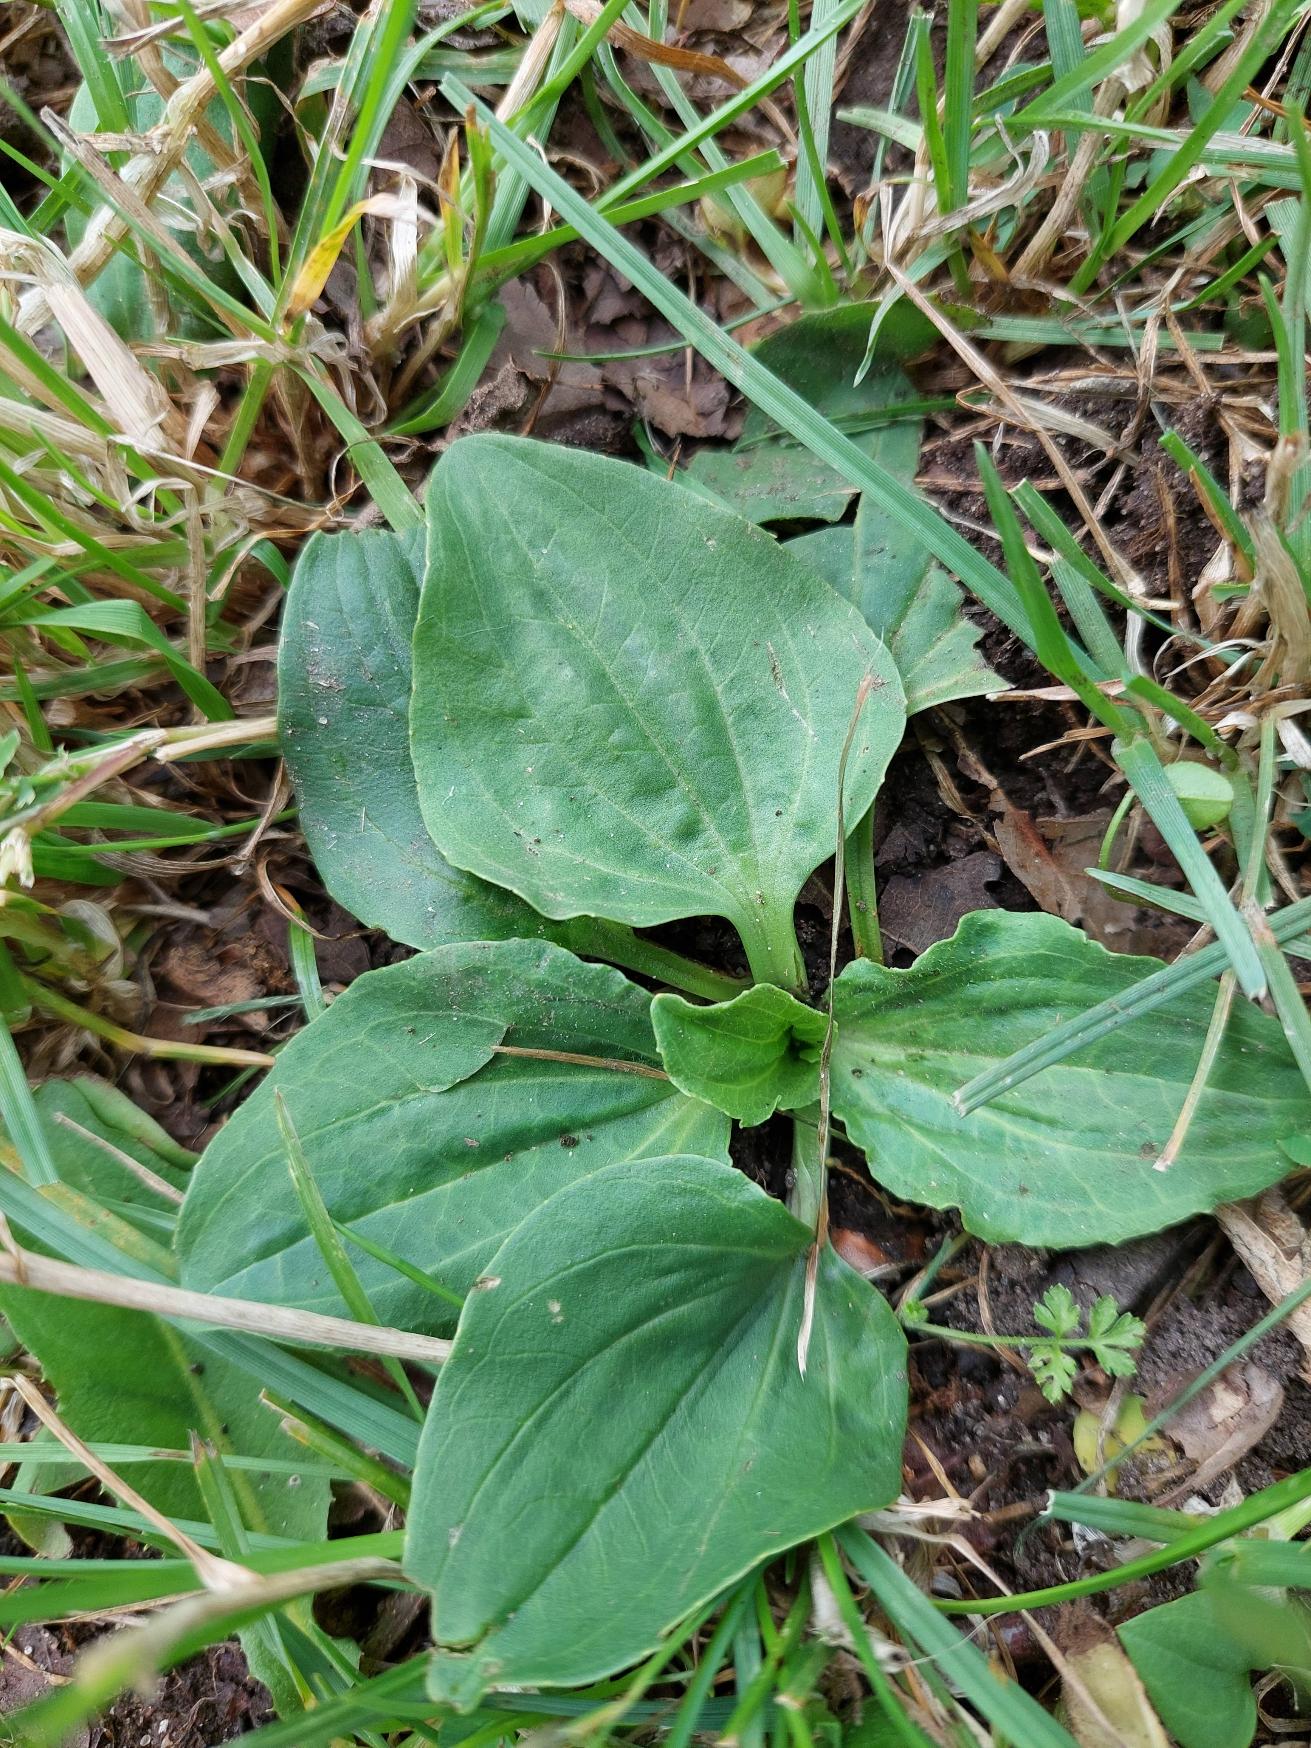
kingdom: Plantae
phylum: Tracheophyta
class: Magnoliopsida
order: Lamiales
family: Plantaginaceae
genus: Plantago
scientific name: Plantago major
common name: Glat vejbred
